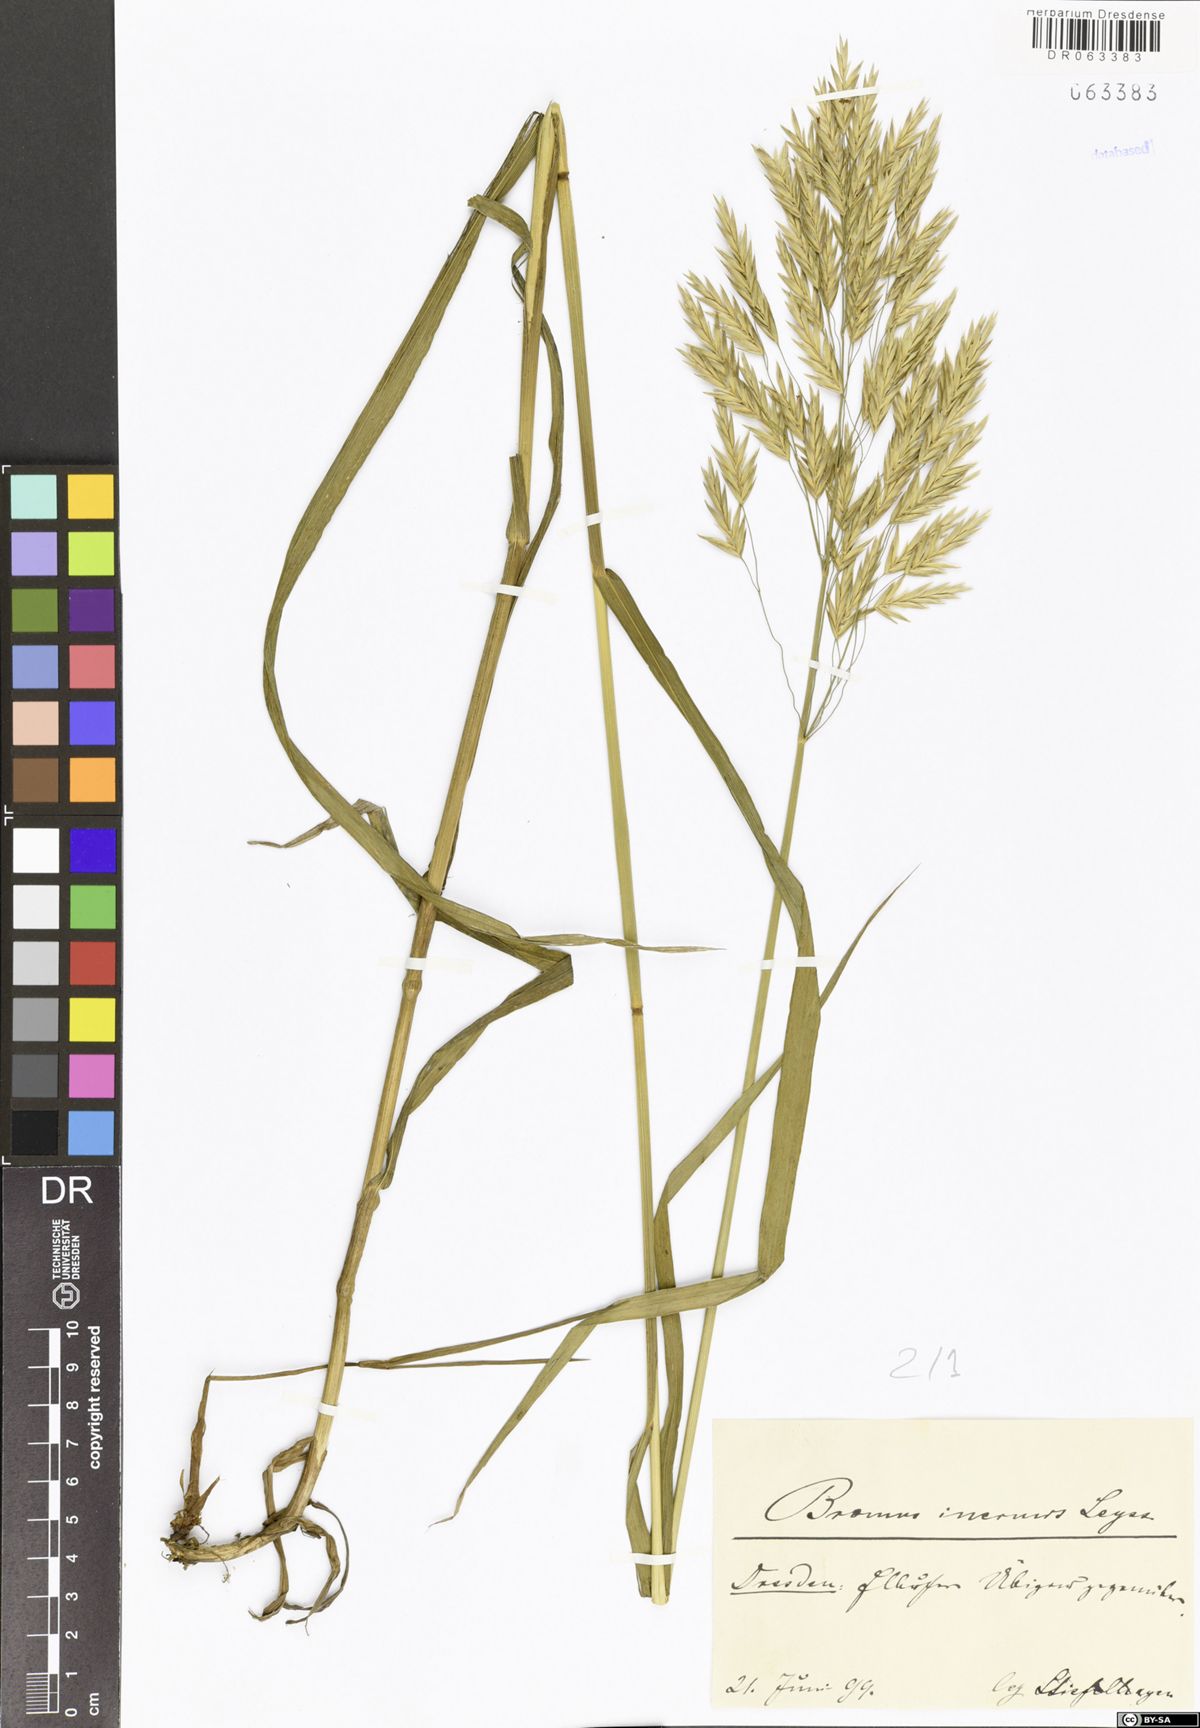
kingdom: Plantae
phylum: Tracheophyta
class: Liliopsida
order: Poales
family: Poaceae
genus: Bromus
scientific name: Bromus inermis
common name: Smooth brome
